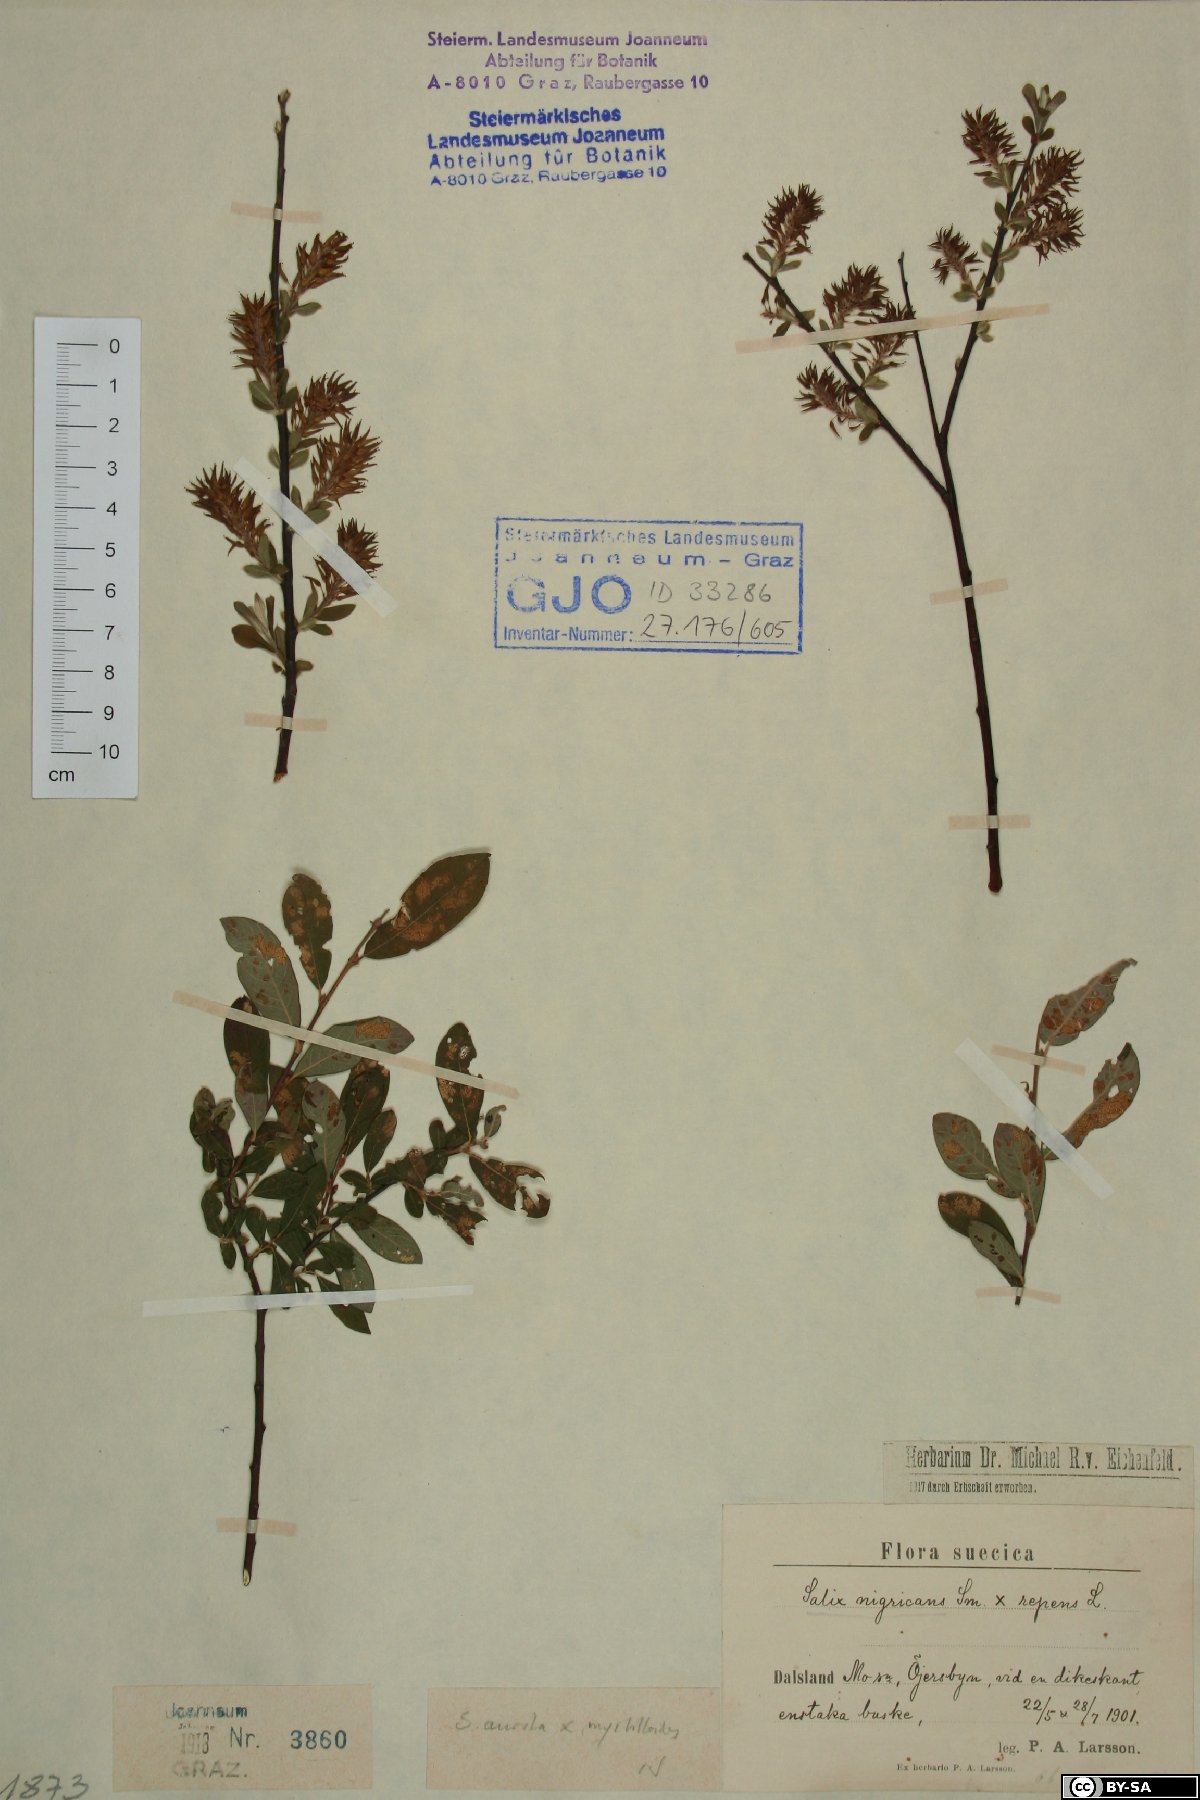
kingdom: Plantae
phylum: Tracheophyta
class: Magnoliopsida
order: Malpighiales
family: Salicaceae
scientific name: Salicaceae
